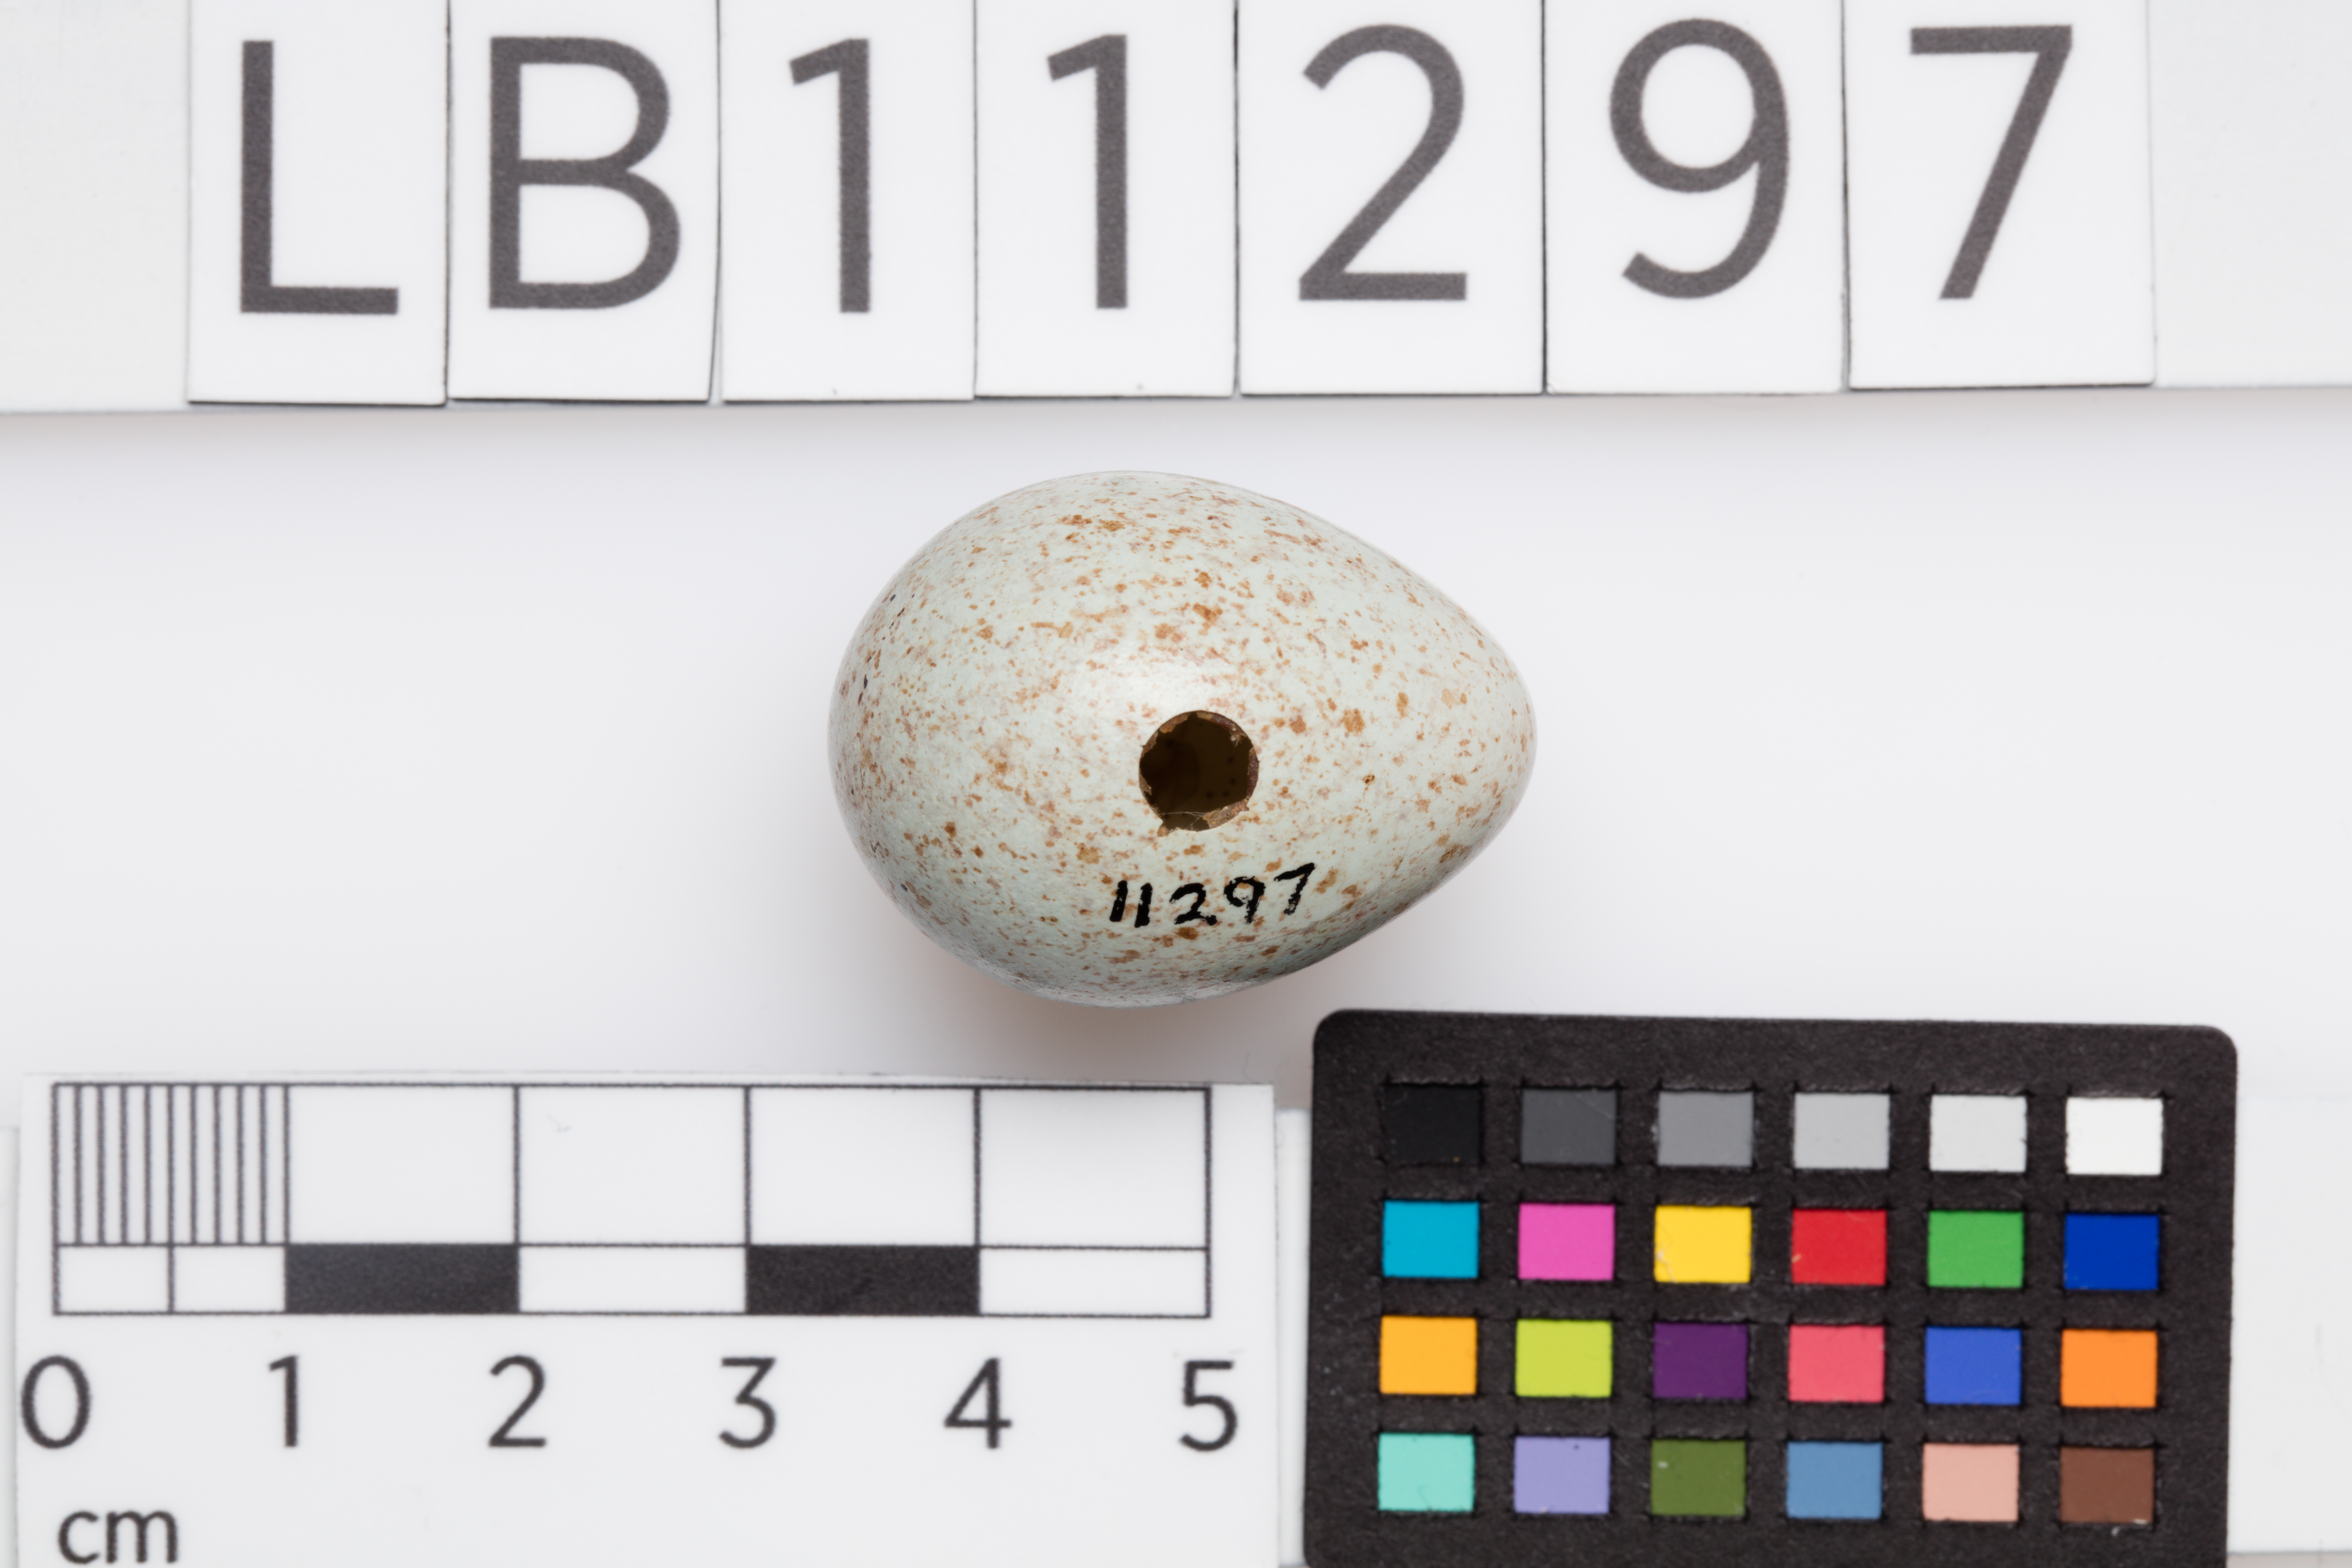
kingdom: Animalia
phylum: Chordata
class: Aves
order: Passeriformes
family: Turdidae
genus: Turdus
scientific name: Turdus merula
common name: Common blackbird
